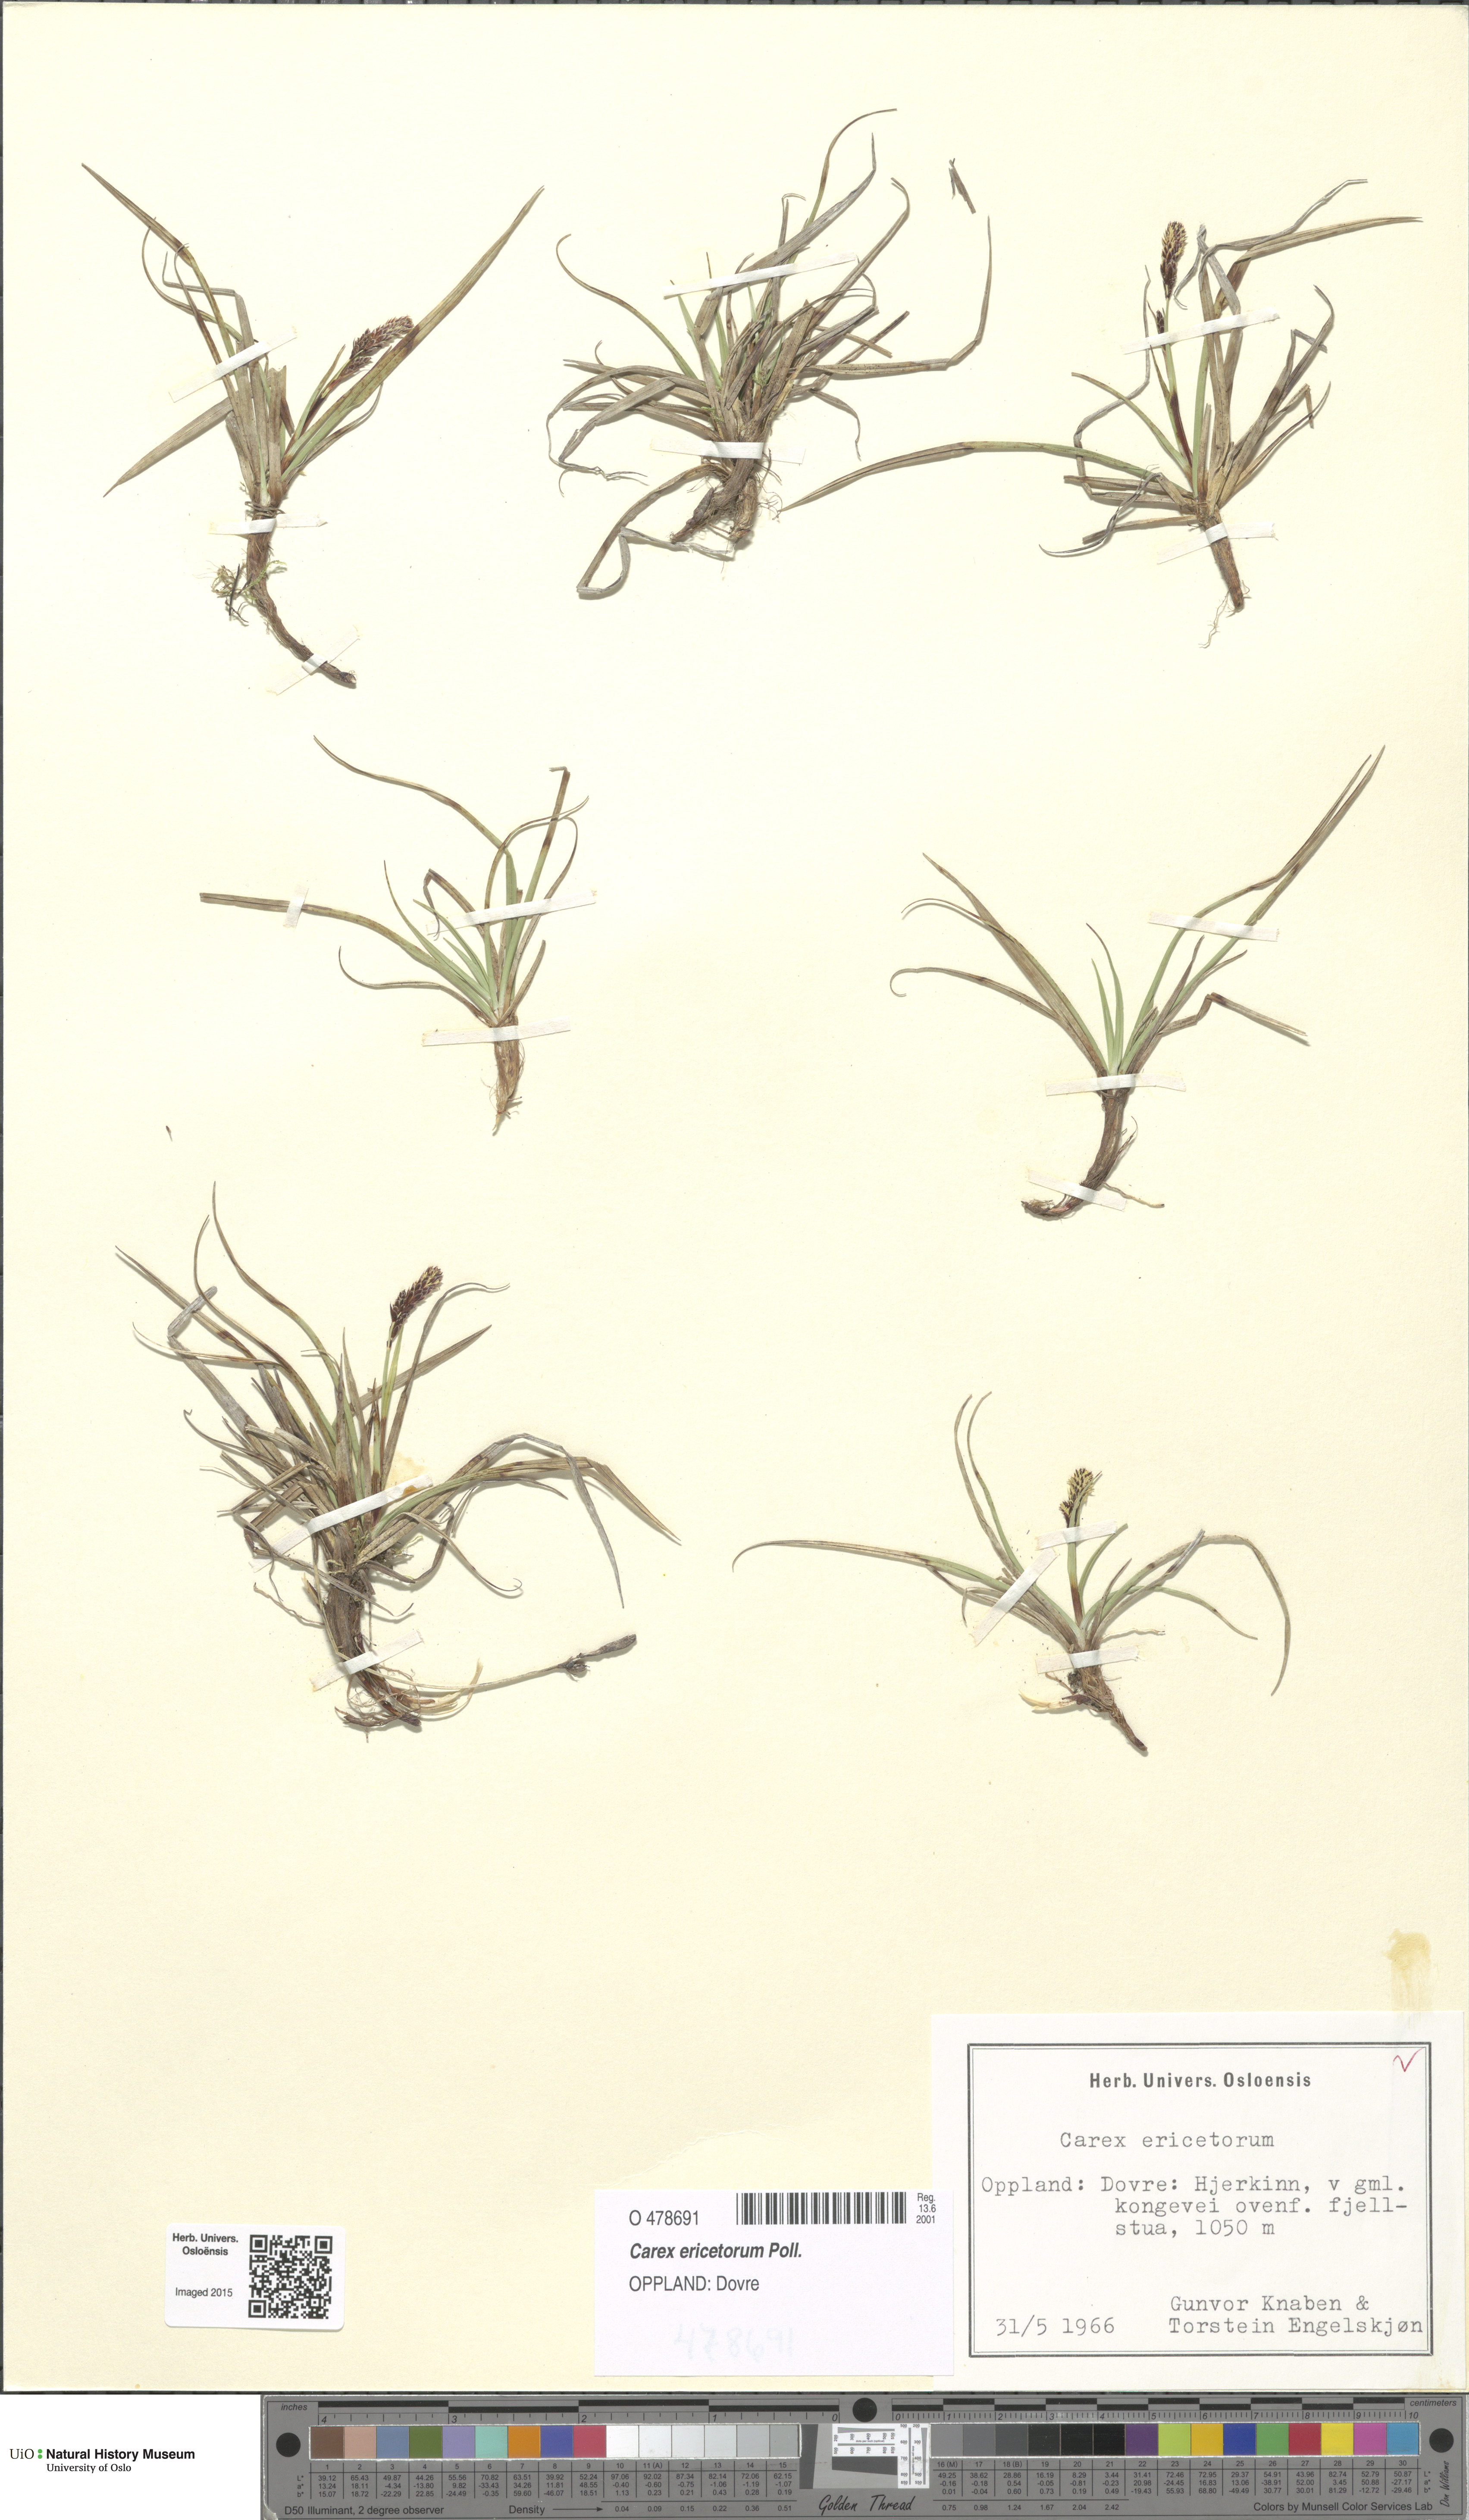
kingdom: Plantae
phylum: Tracheophyta
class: Liliopsida
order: Poales
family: Cyperaceae
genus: Carex
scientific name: Carex ericetorum
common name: Rare spring-sedge
